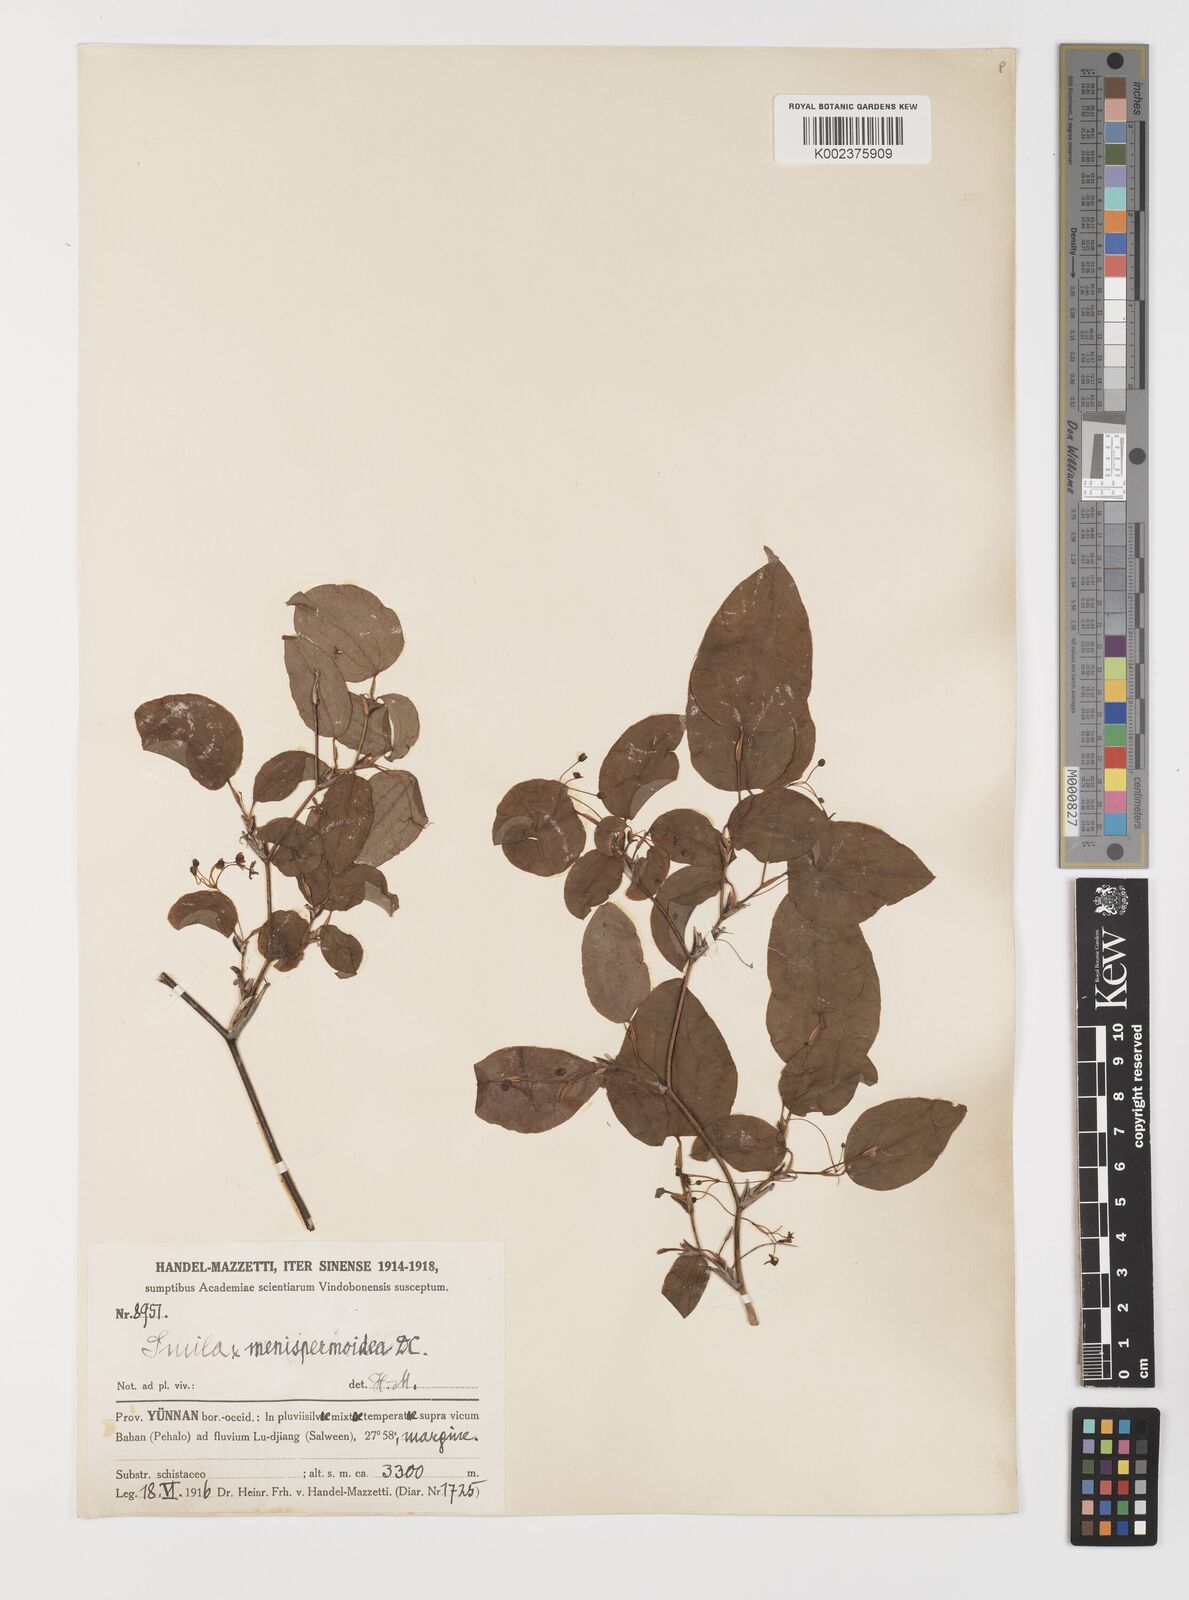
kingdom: Plantae
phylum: Tracheophyta
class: Liliopsida
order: Liliales
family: Smilacaceae
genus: Smilax
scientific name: Smilax menispermoidea
